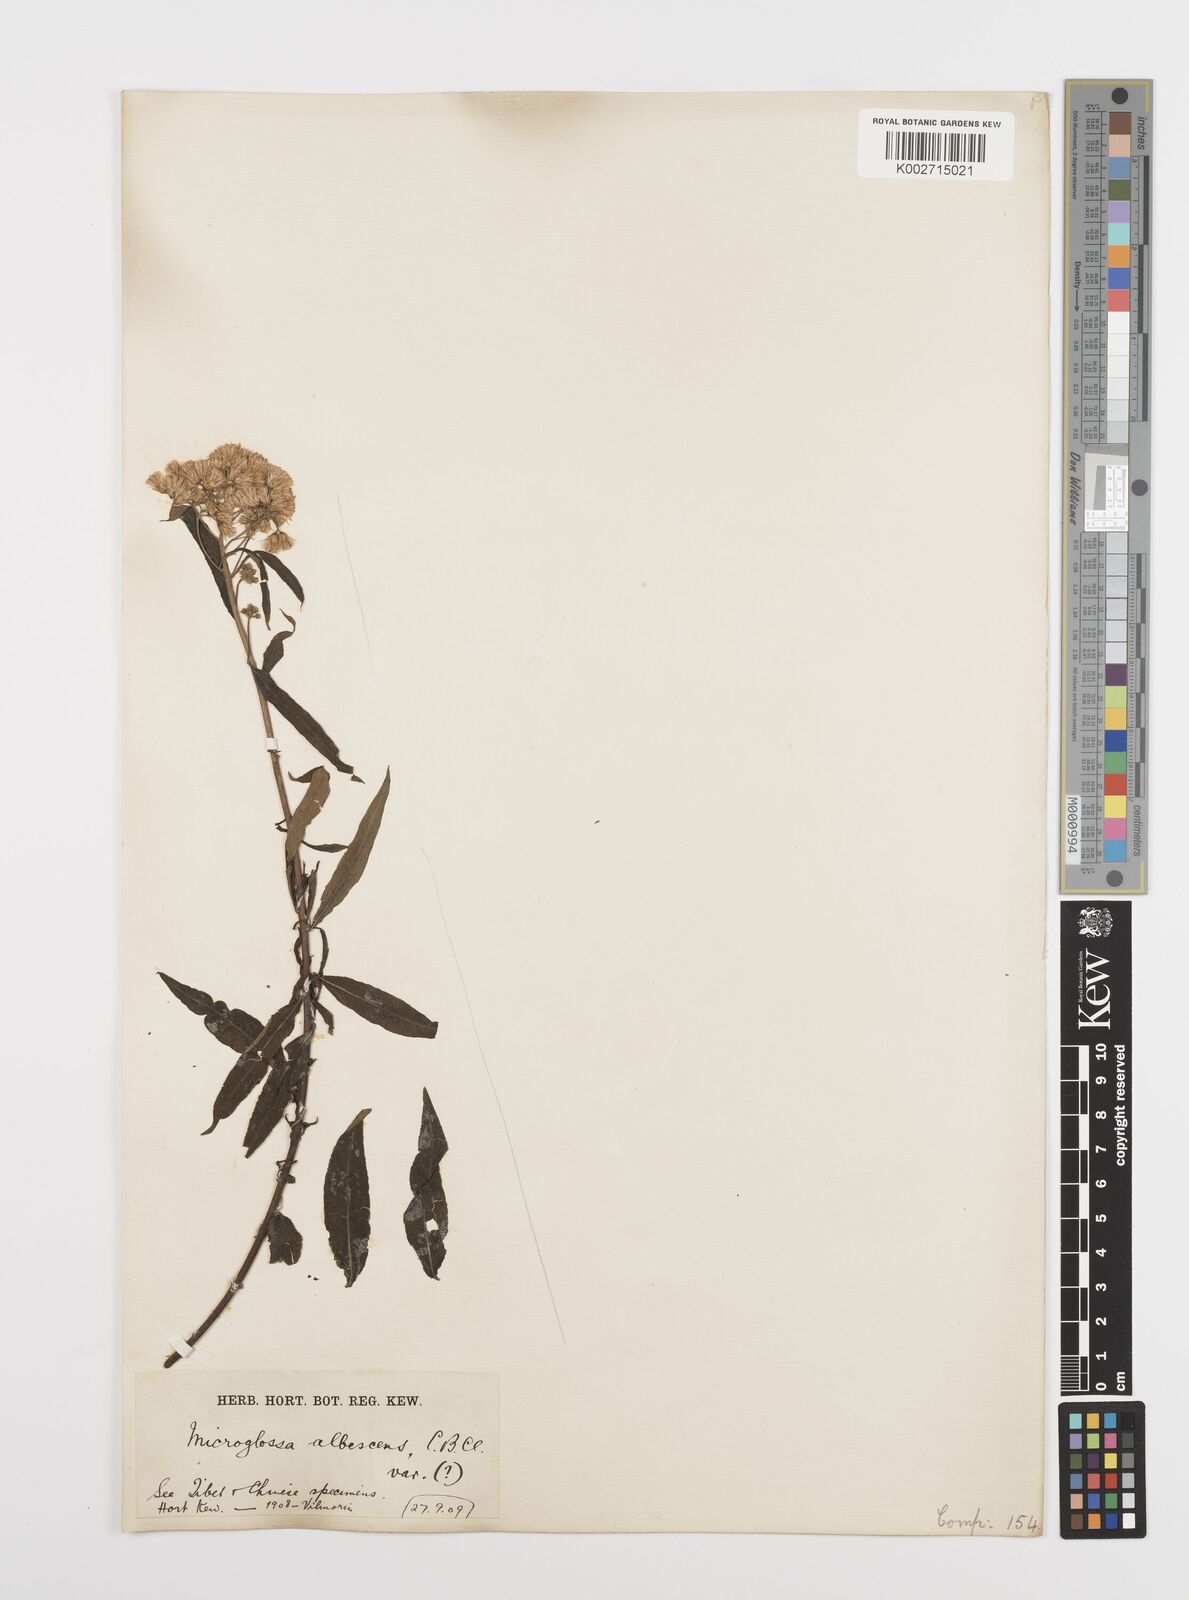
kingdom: Plantae
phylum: Tracheophyta
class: Magnoliopsida
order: Asterales
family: Asteraceae
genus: Sinosidus
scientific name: Sinosidus albescens
